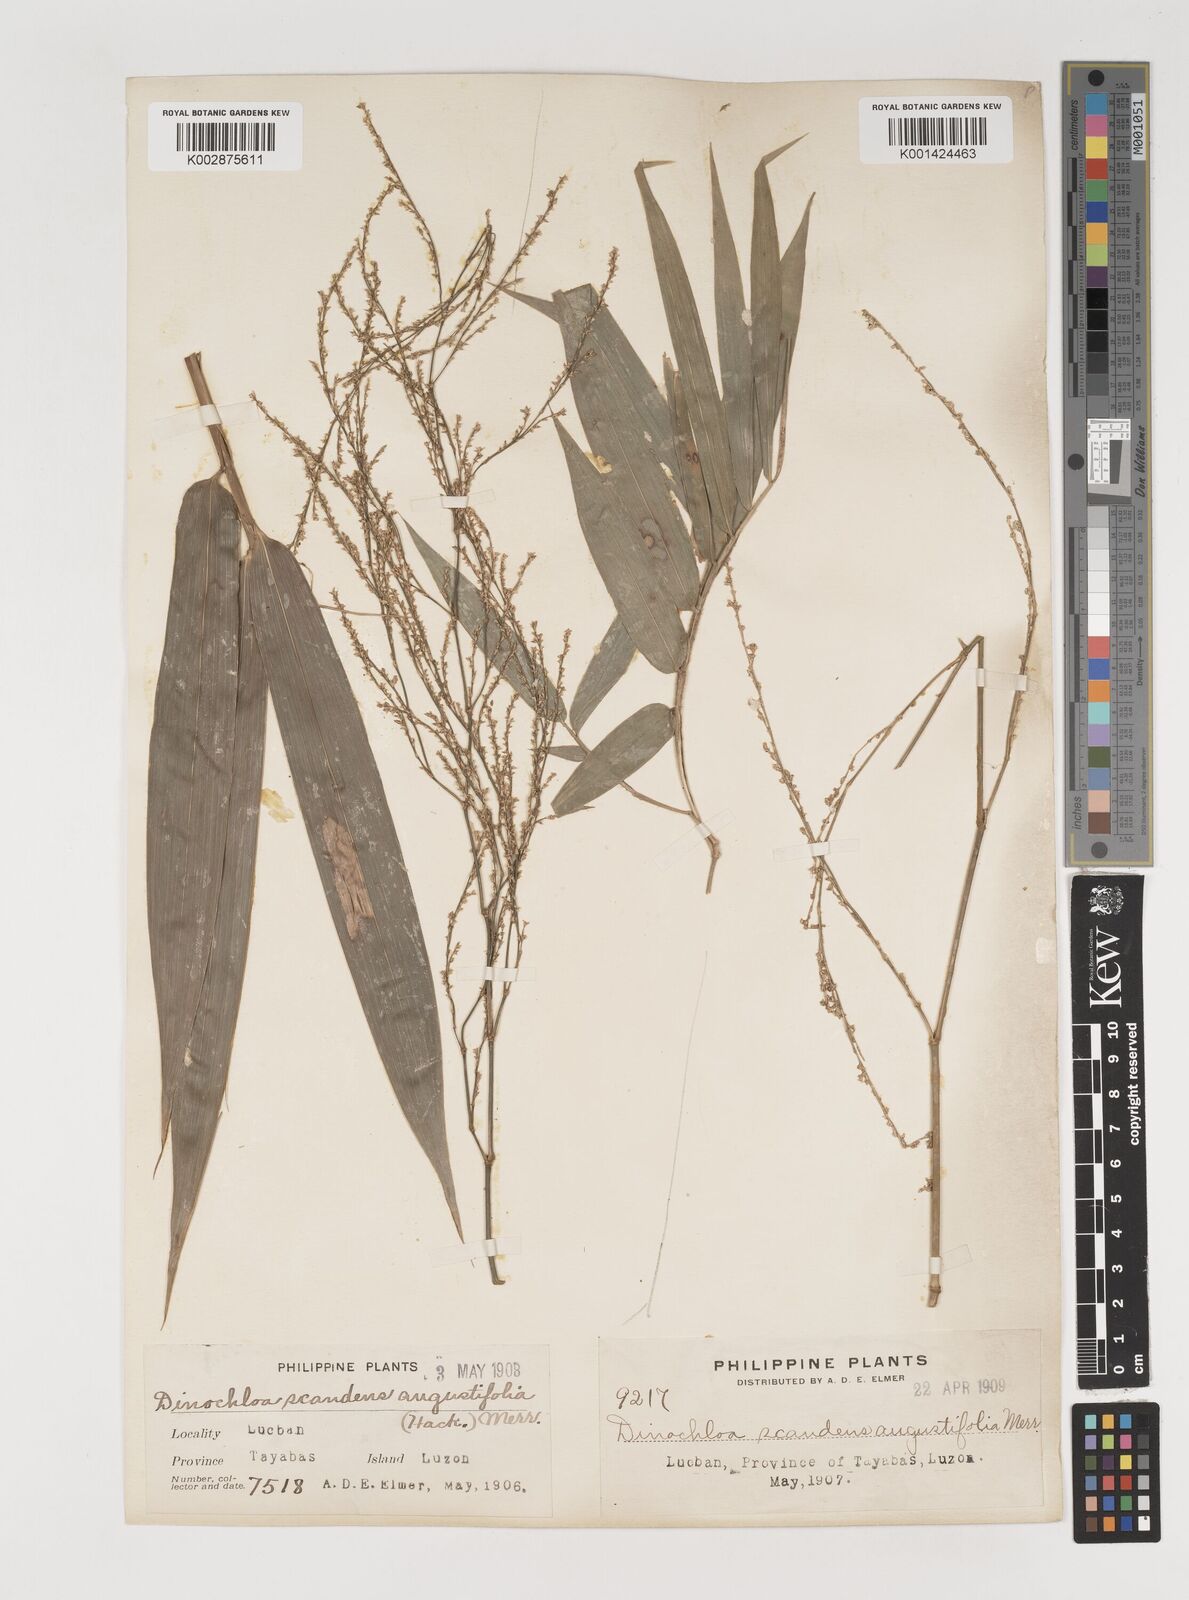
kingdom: Plantae
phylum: Tracheophyta
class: Liliopsida
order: Poales
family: Poaceae
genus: Dinochloa
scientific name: Dinochloa
